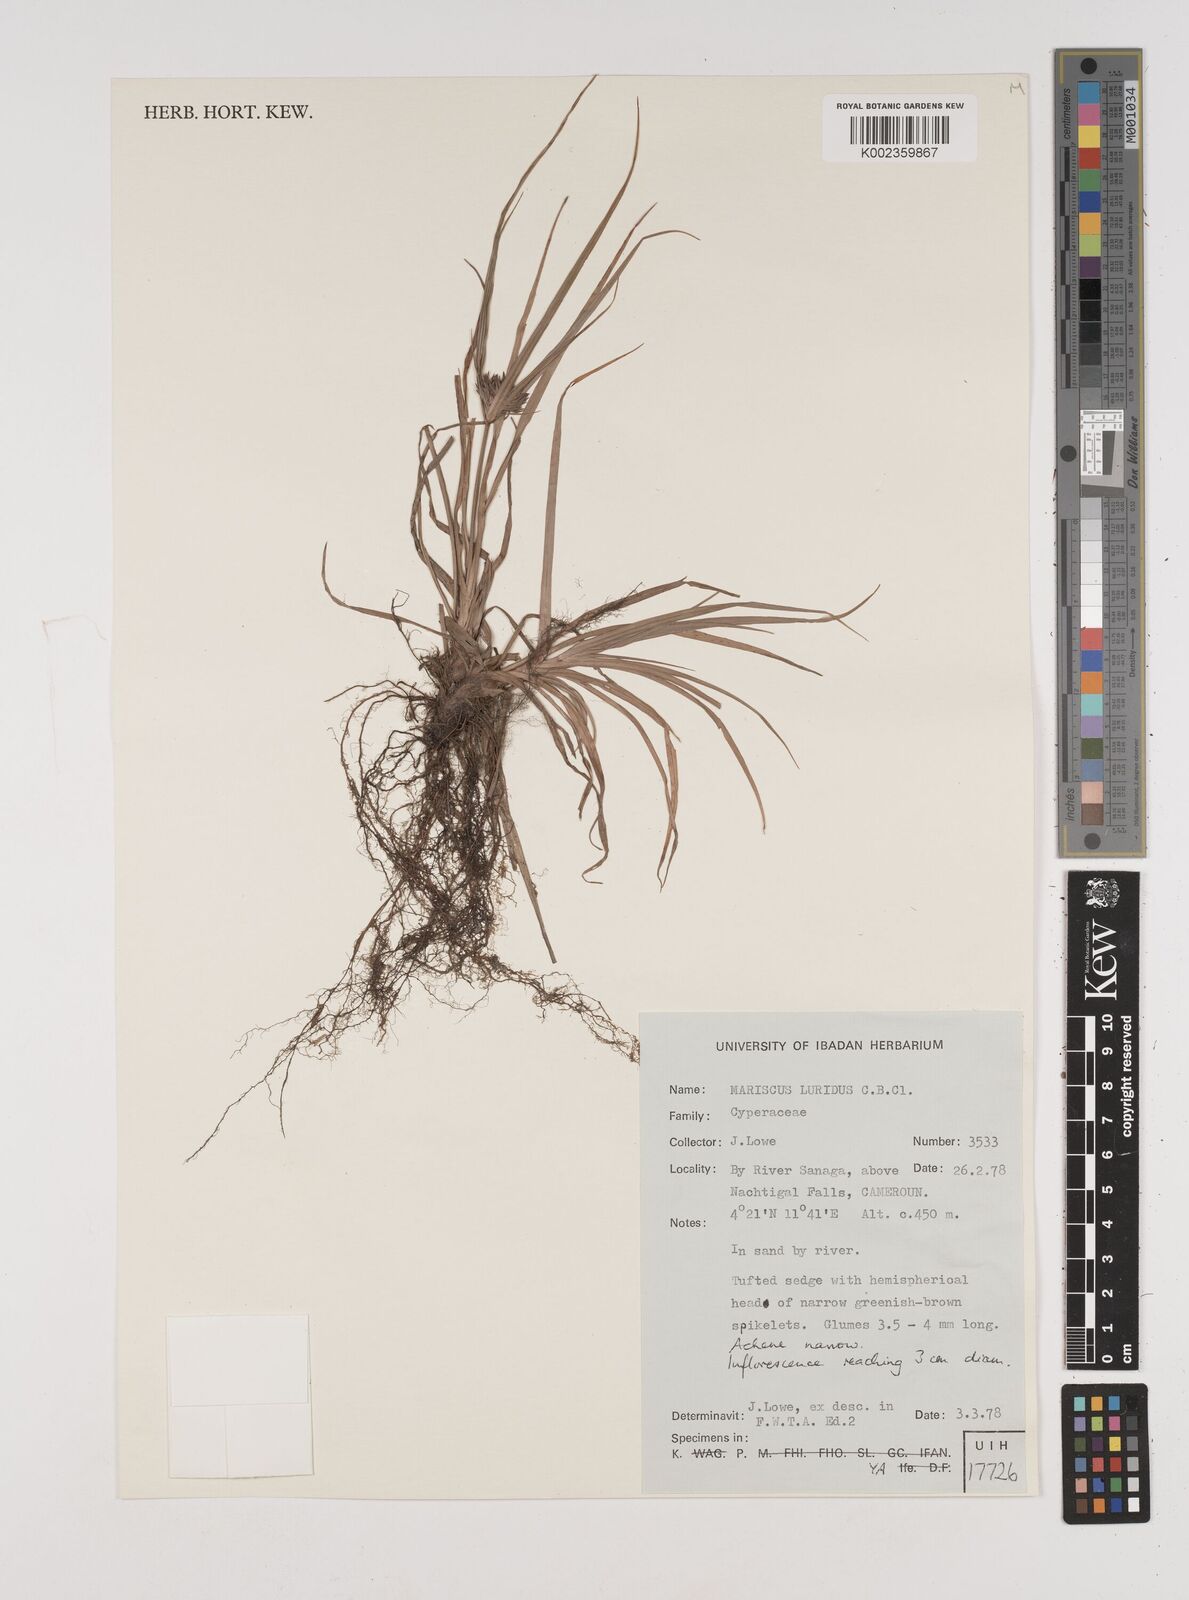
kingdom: Plantae
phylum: Tracheophyta
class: Liliopsida
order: Poales
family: Cyperaceae
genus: Cyperus
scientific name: Cyperus tenuis
